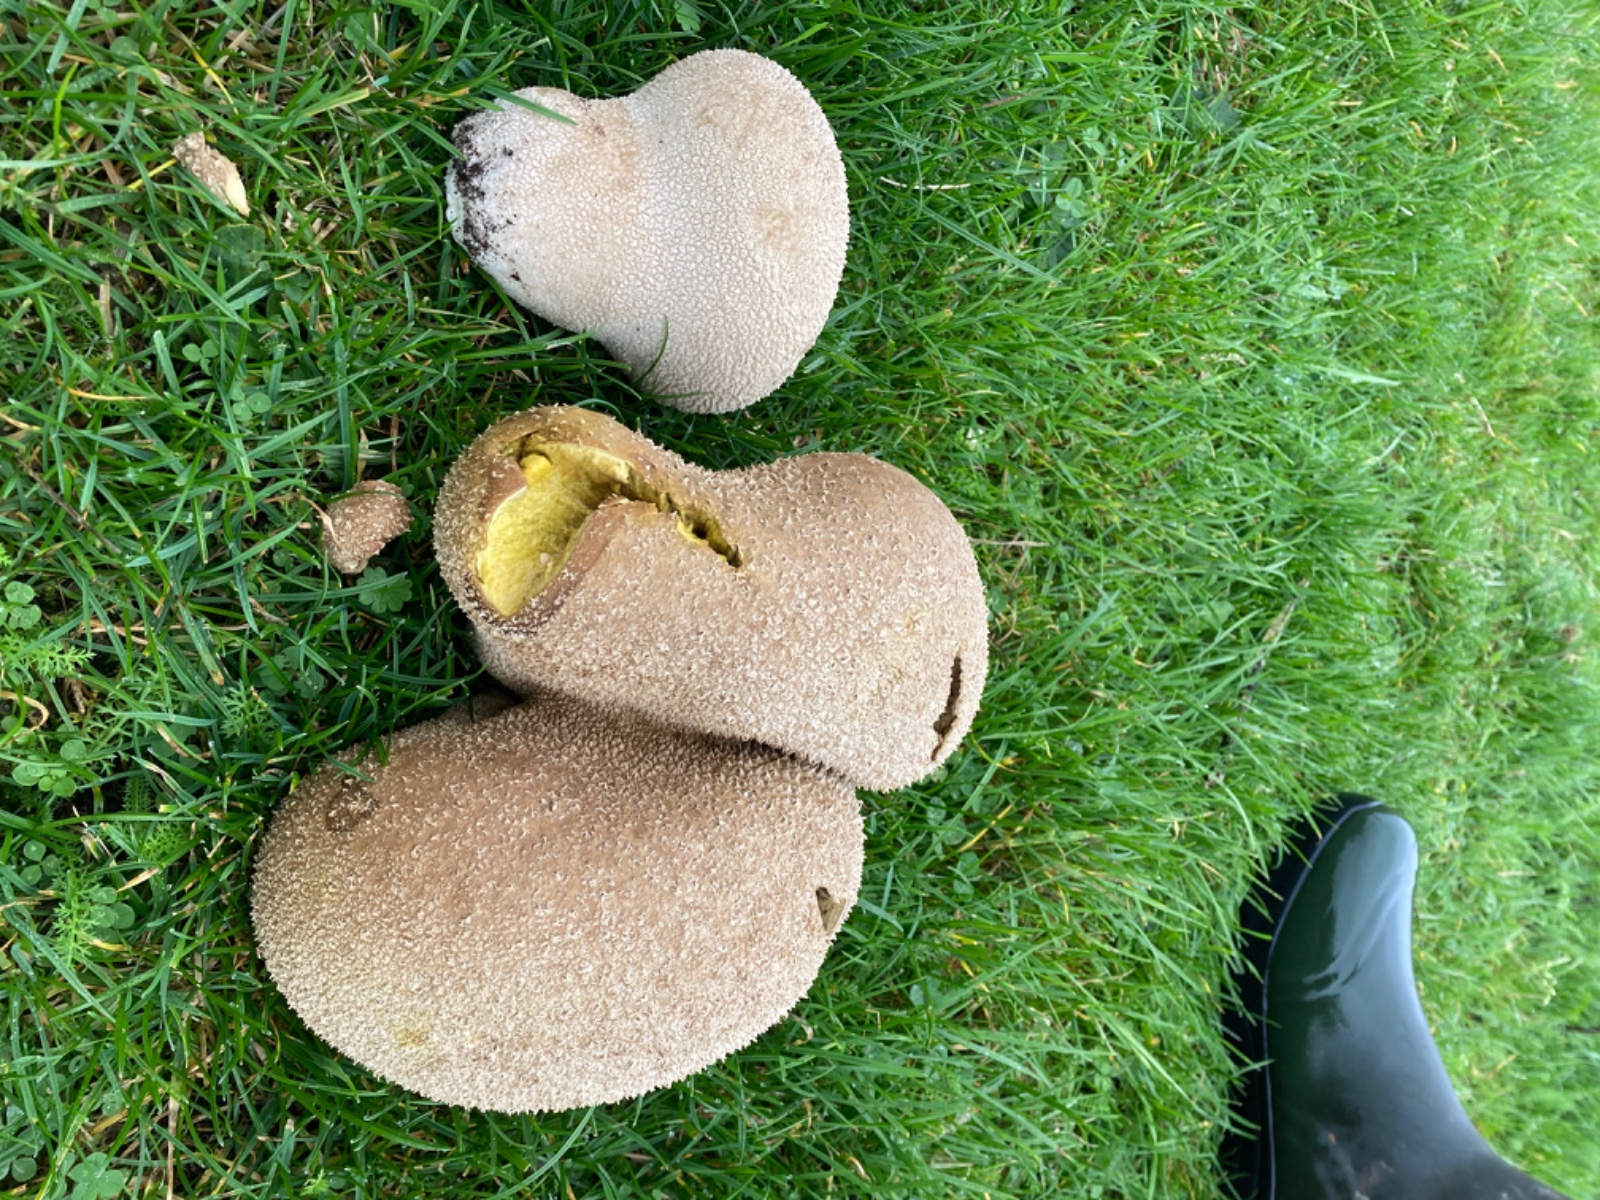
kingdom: Fungi
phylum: Basidiomycota
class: Agaricomycetes
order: Agaricales
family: Lycoperdaceae
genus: Bovistella
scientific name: Bovistella utriformis
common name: skællet støvbold
